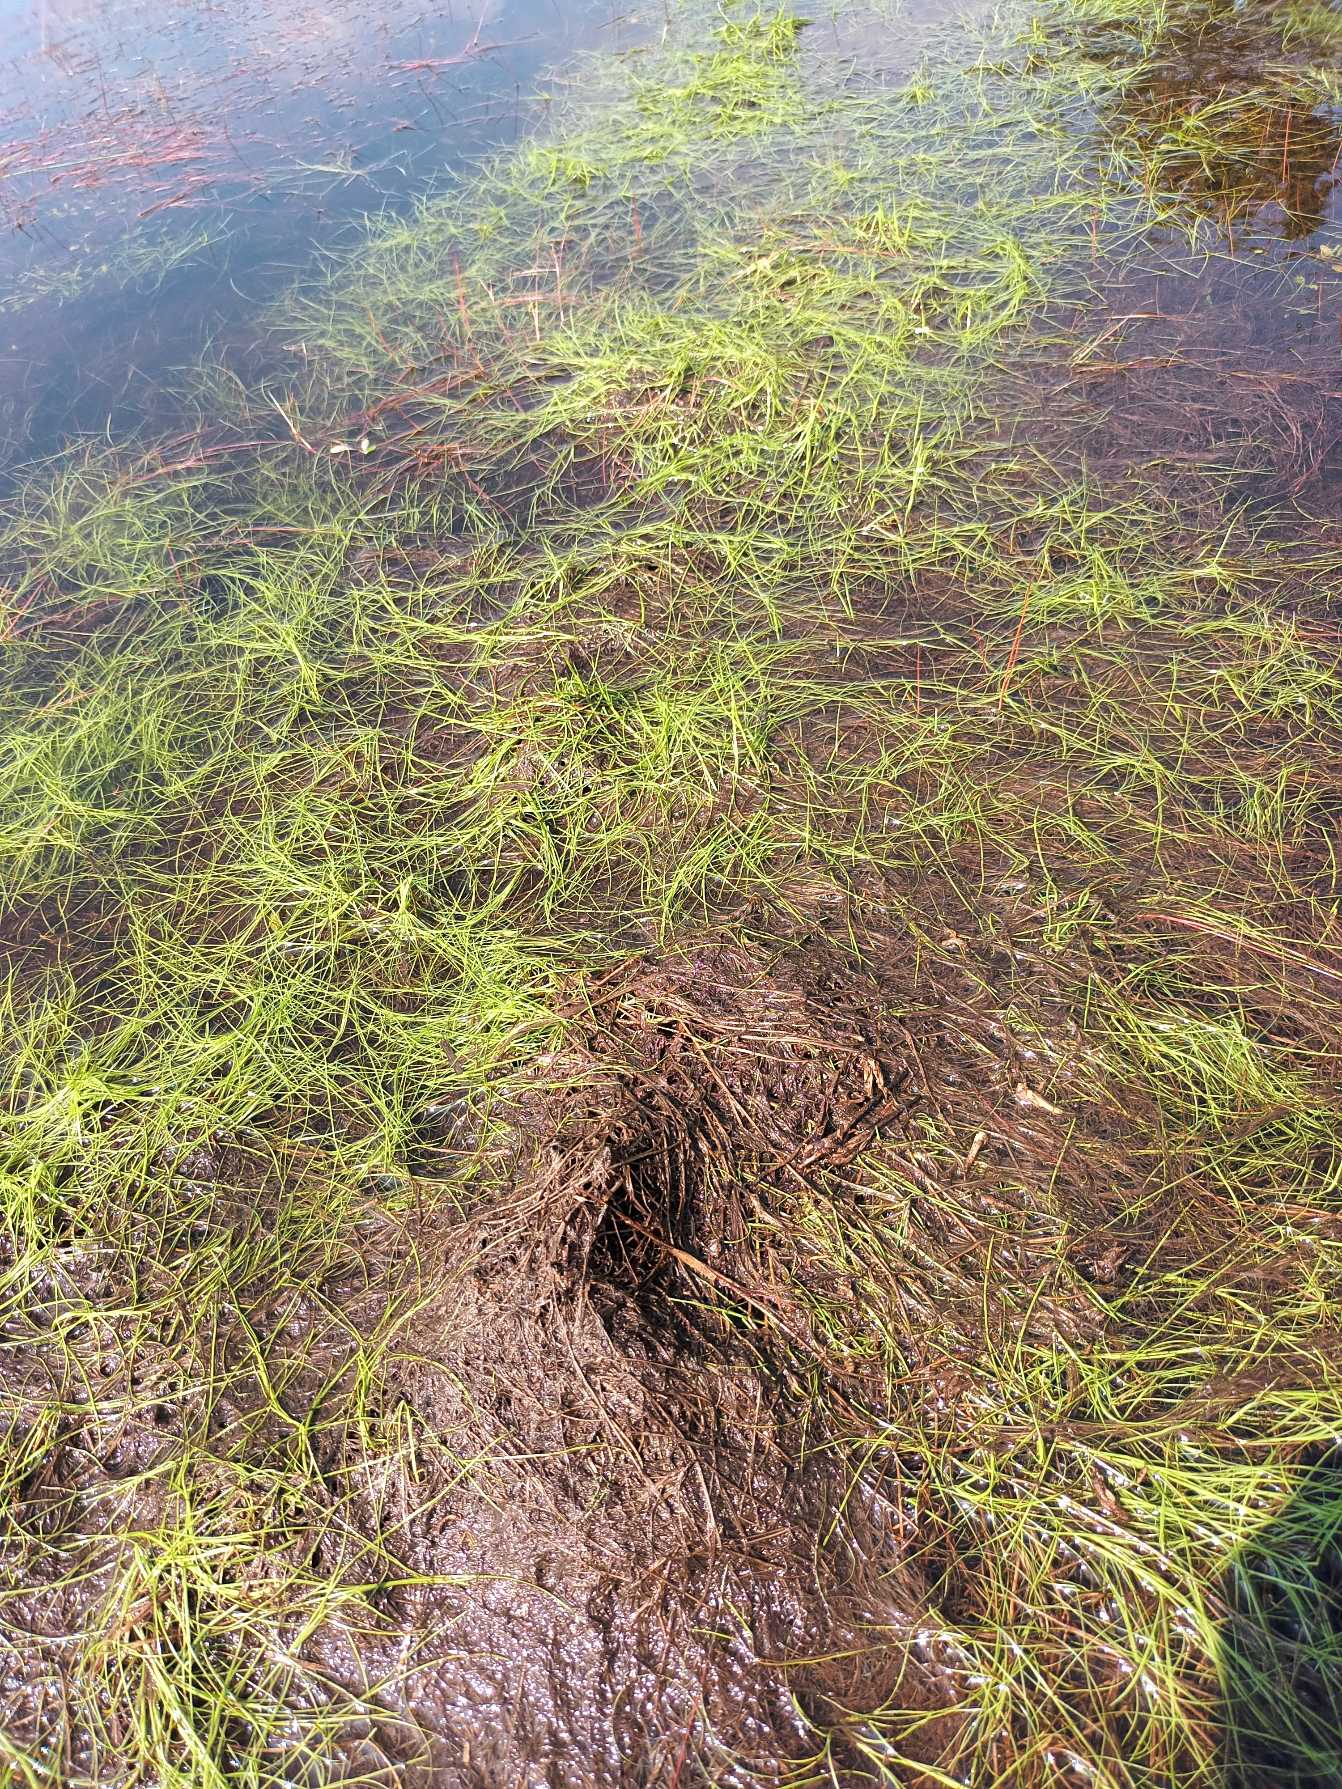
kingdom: Plantae
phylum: Tracheophyta
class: Liliopsida
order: Poales
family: Cyperaceae
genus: Isolepis
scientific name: Isolepis fluitans
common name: Flydende kogleaks
